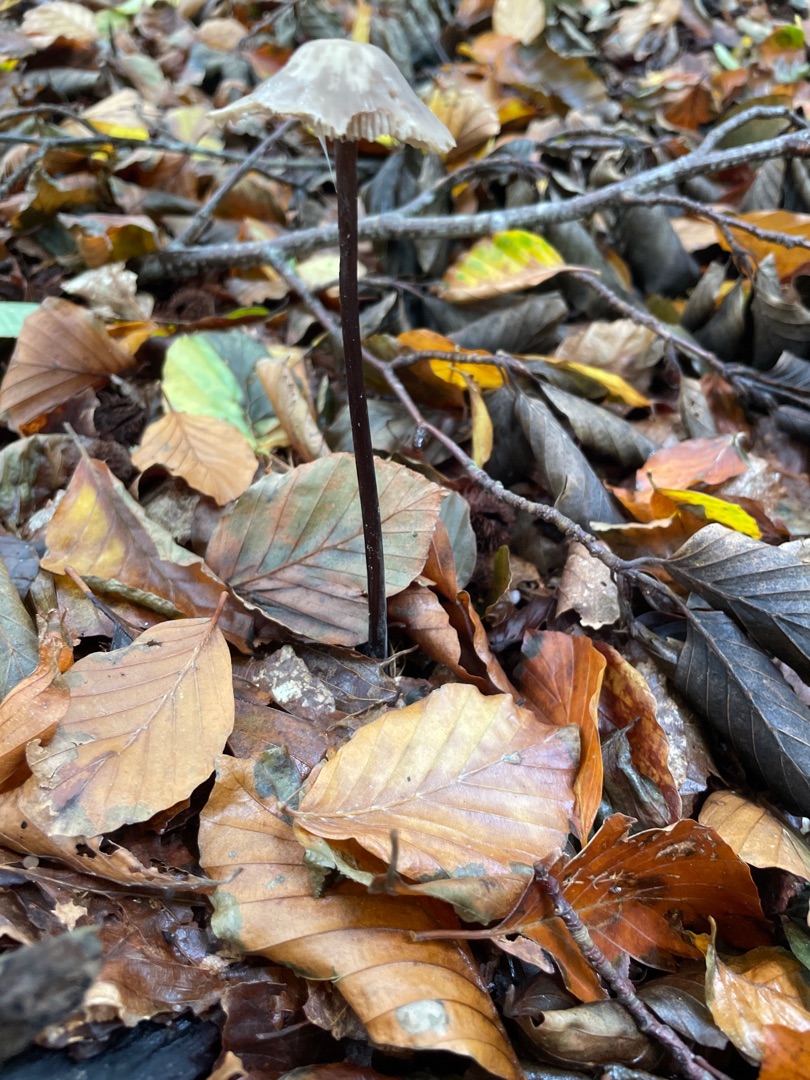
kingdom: Fungi
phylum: Basidiomycota
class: Agaricomycetes
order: Agaricales
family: Omphalotaceae
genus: Mycetinis
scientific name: Mycetinis alliaceus
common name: Stor løghat
